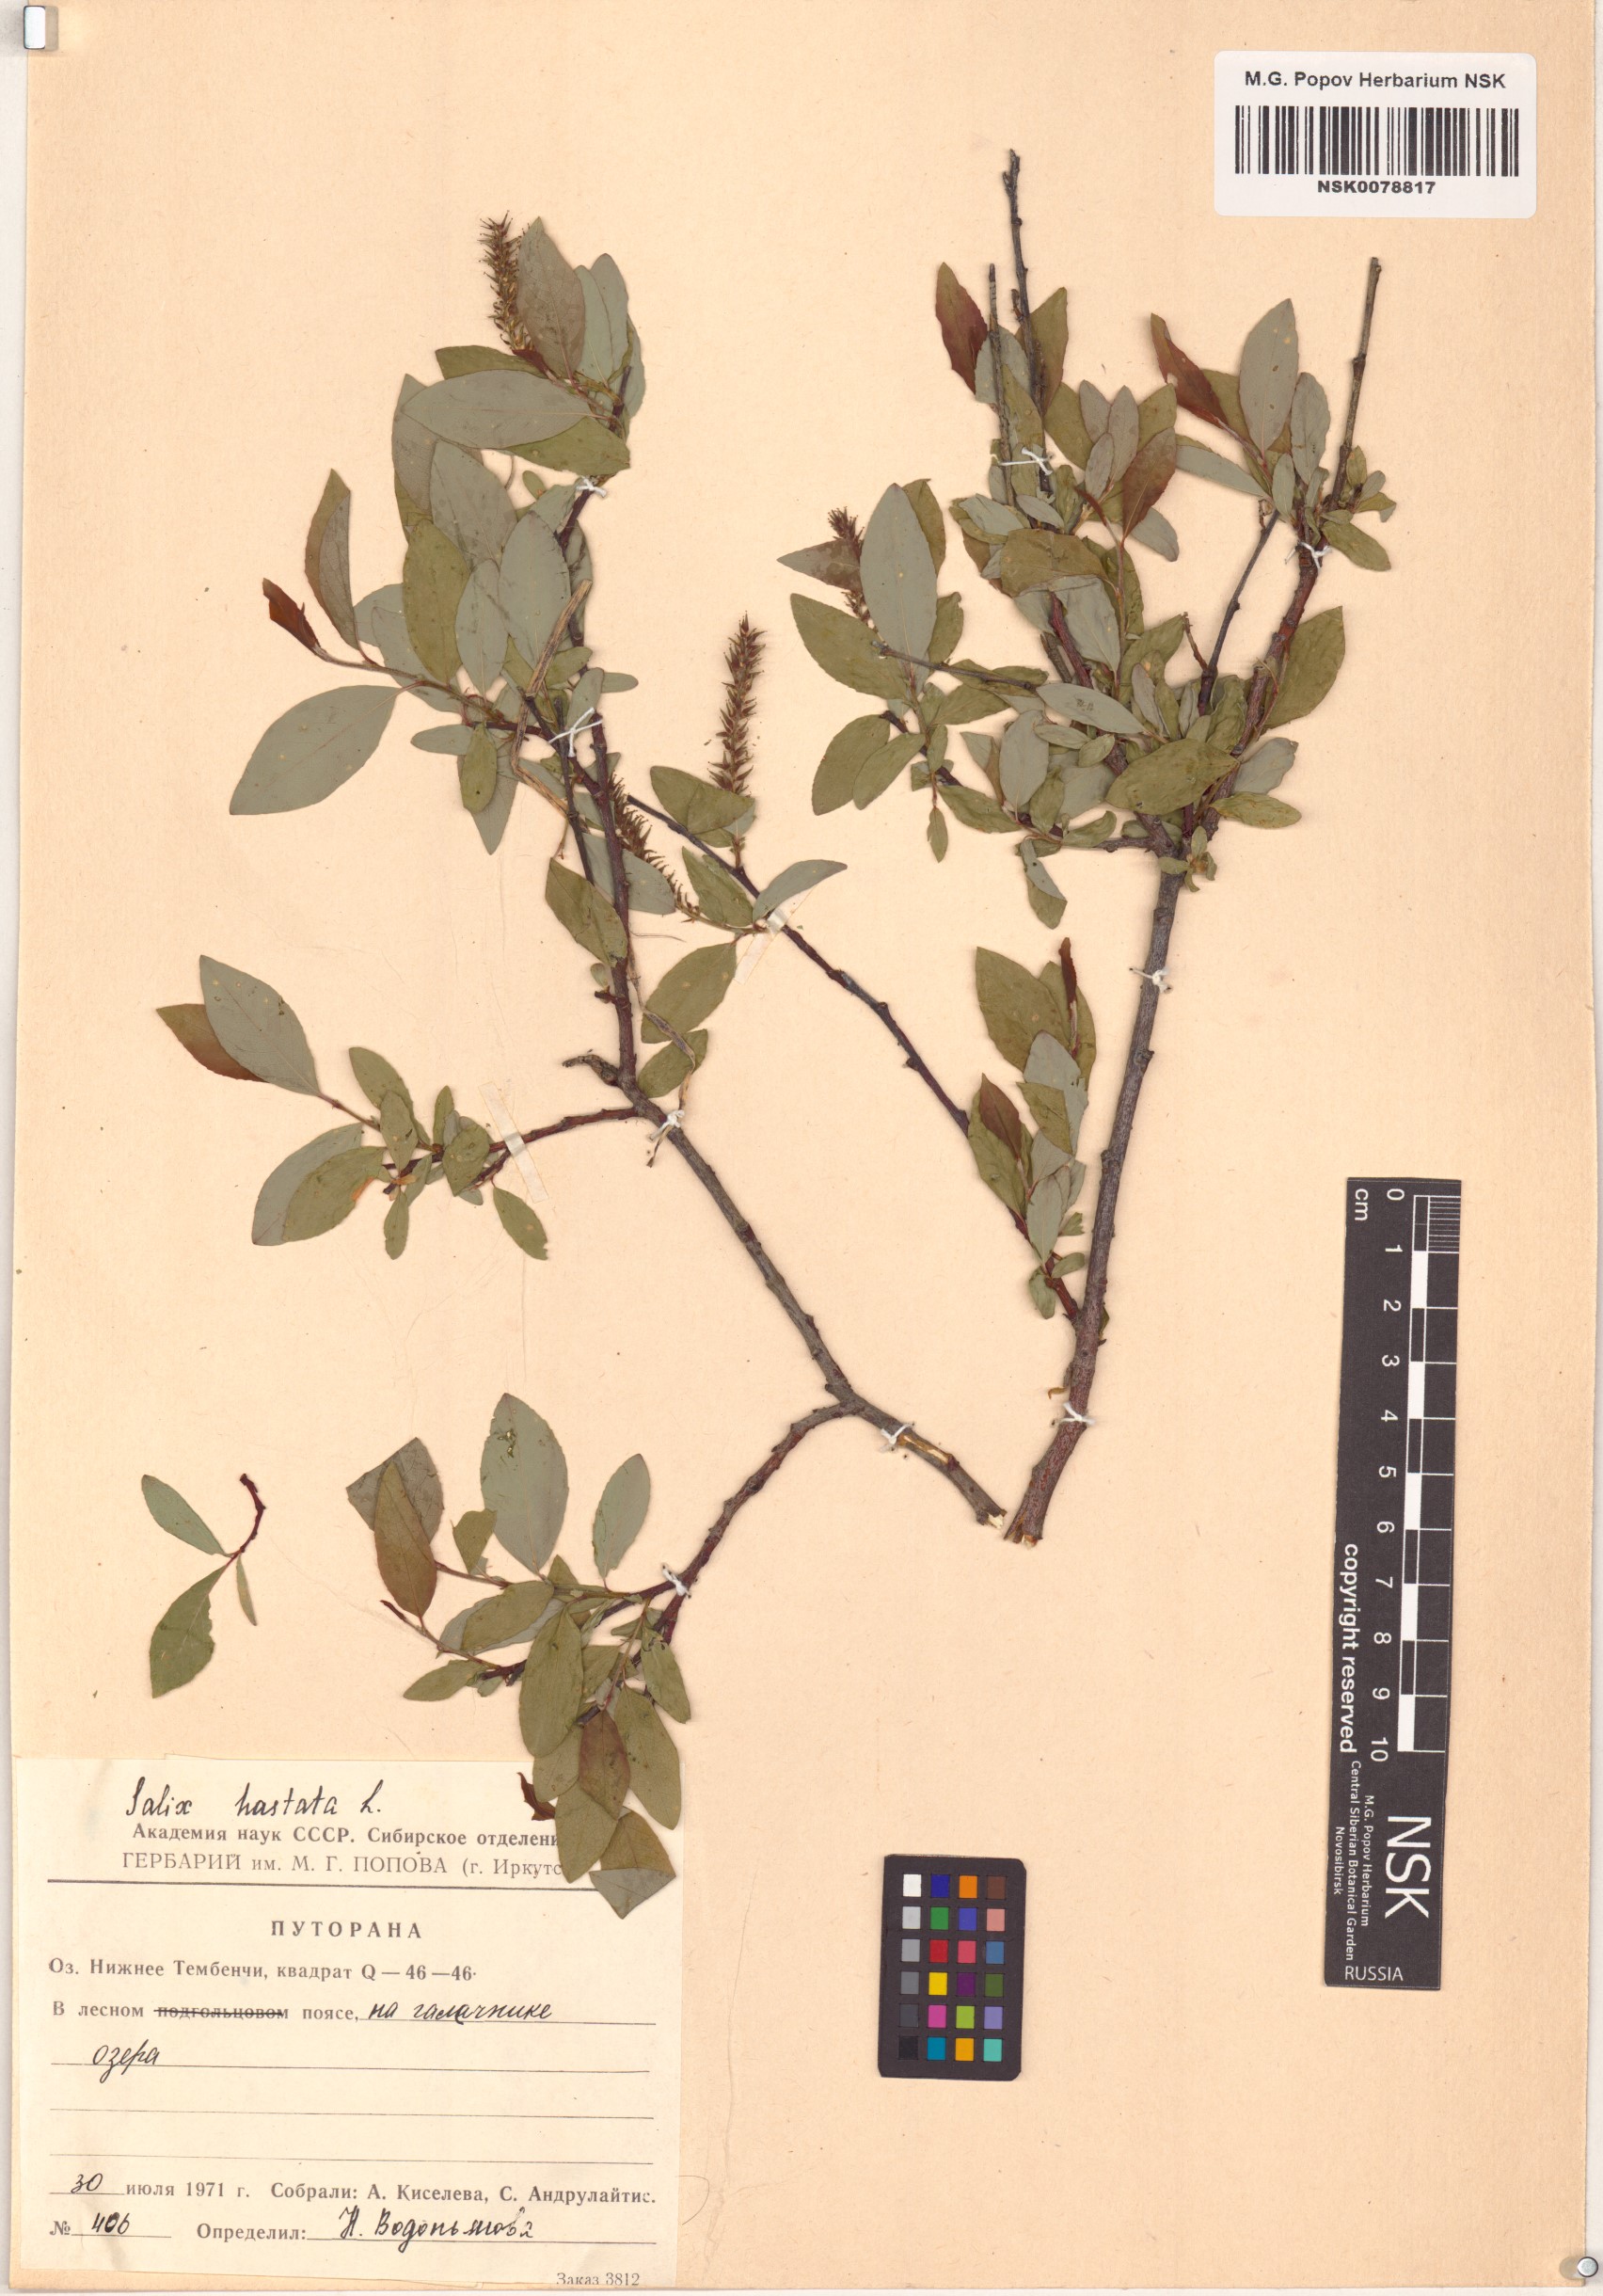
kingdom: Plantae
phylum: Tracheophyta
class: Magnoliopsida
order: Malpighiales
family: Salicaceae
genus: Salix
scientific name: Salix hastata
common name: Halberd willow
